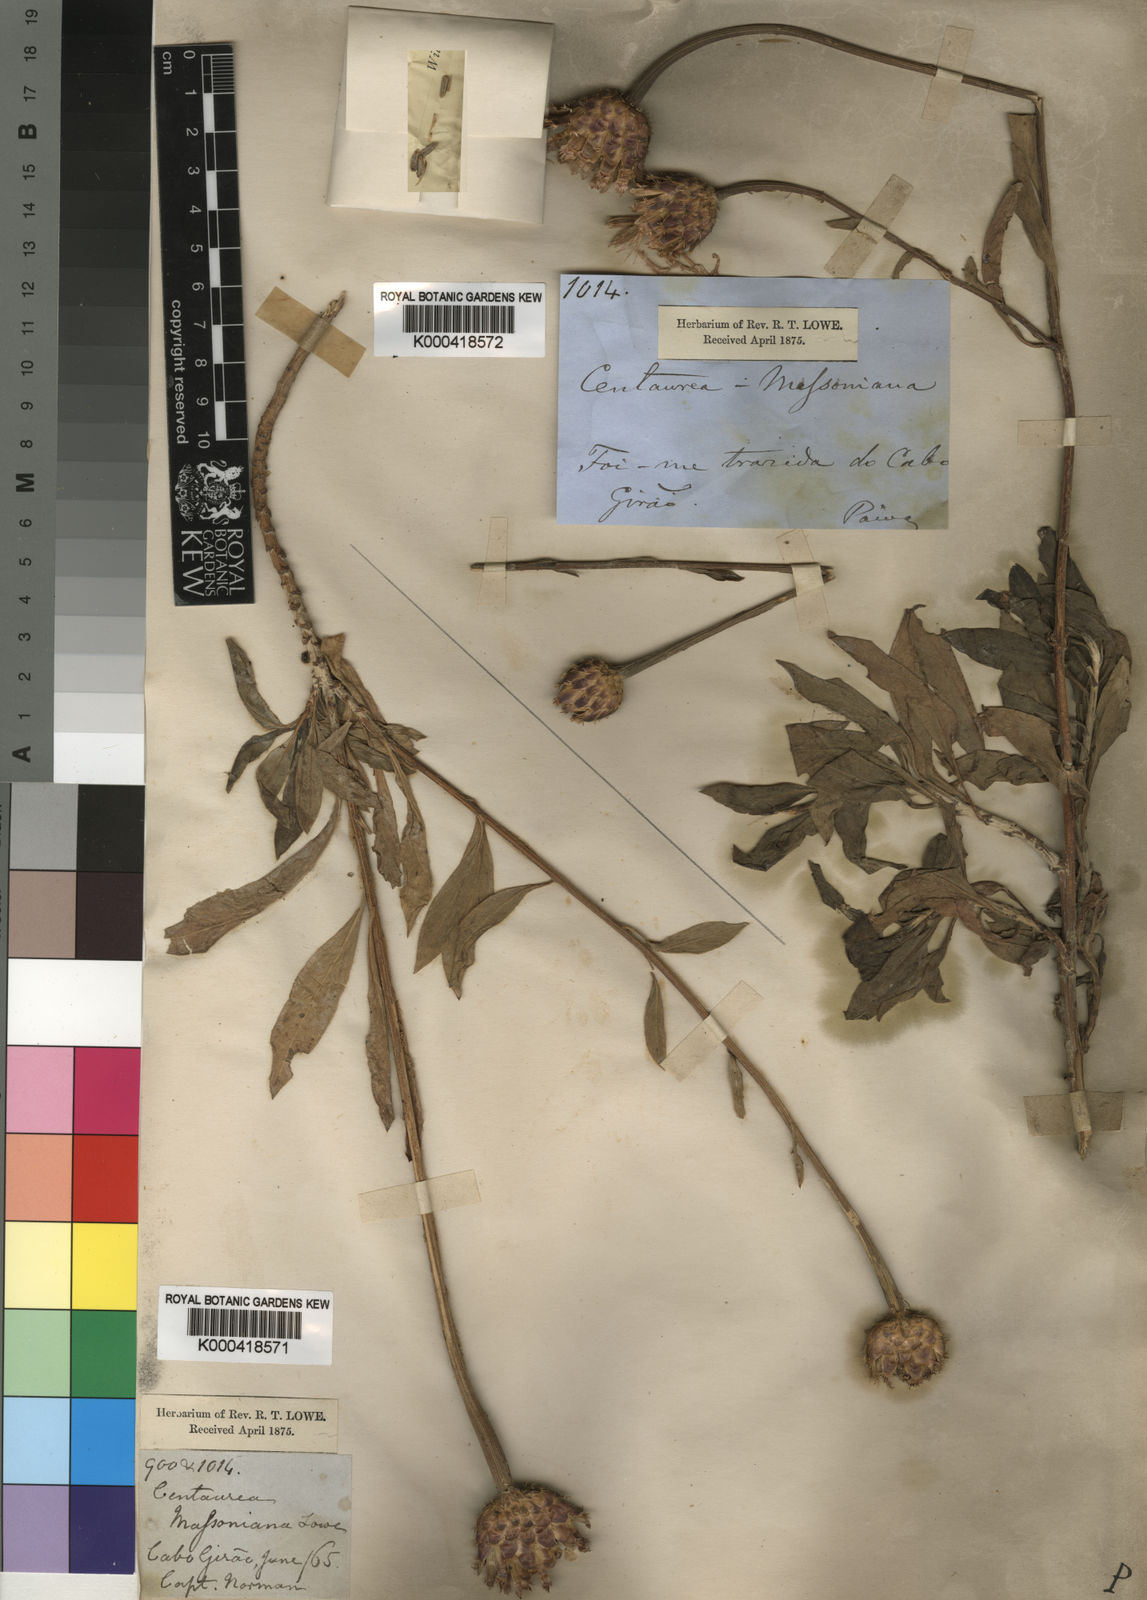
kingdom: Plantae
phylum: Tracheophyta
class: Magnoliopsida
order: Asterales
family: Asteraceae
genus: Cheirolophus
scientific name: Cheirolophus massonianus
